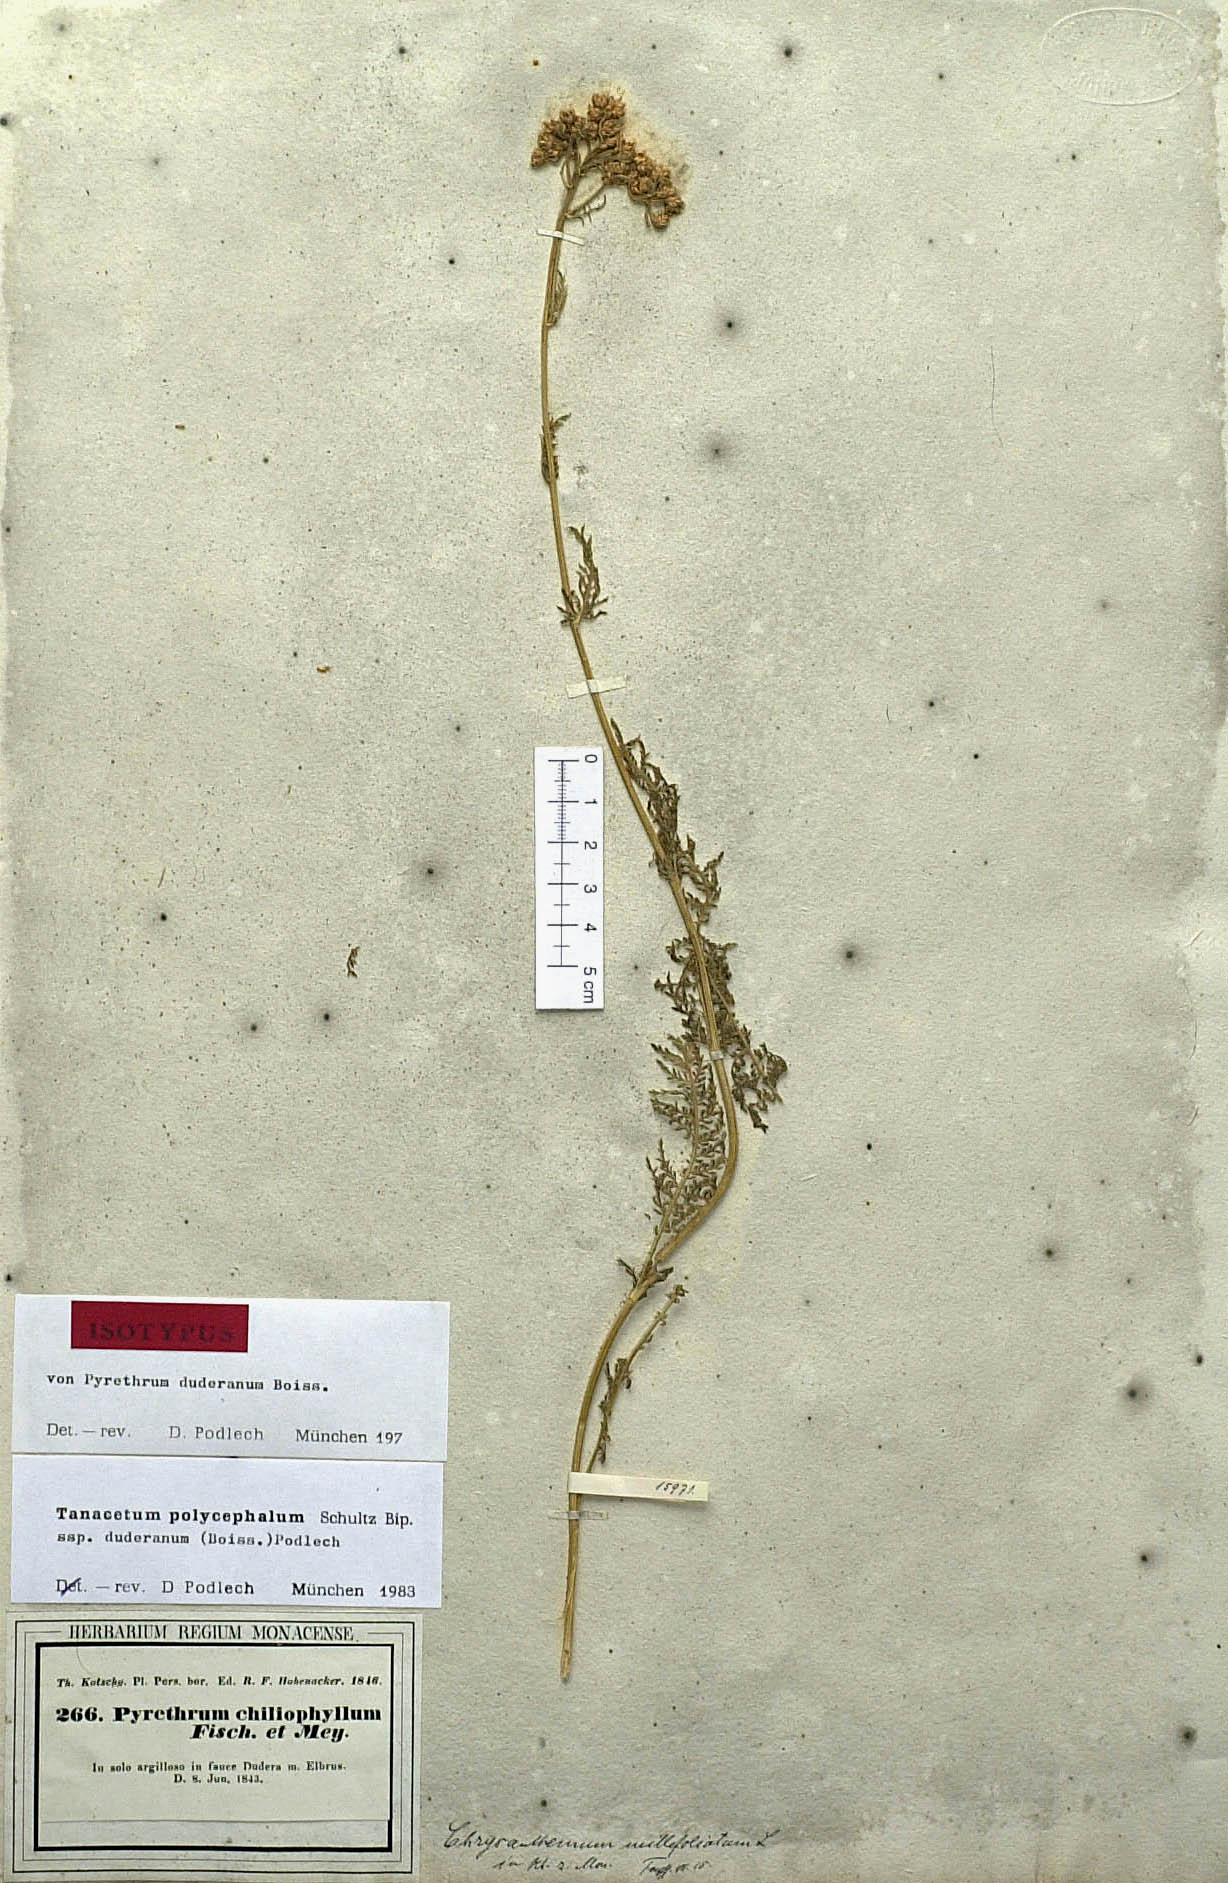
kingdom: Plantae
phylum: Tracheophyta
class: Magnoliopsida
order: Asterales
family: Asteraceae
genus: Tanacetum
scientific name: Tanacetum polycephalum
